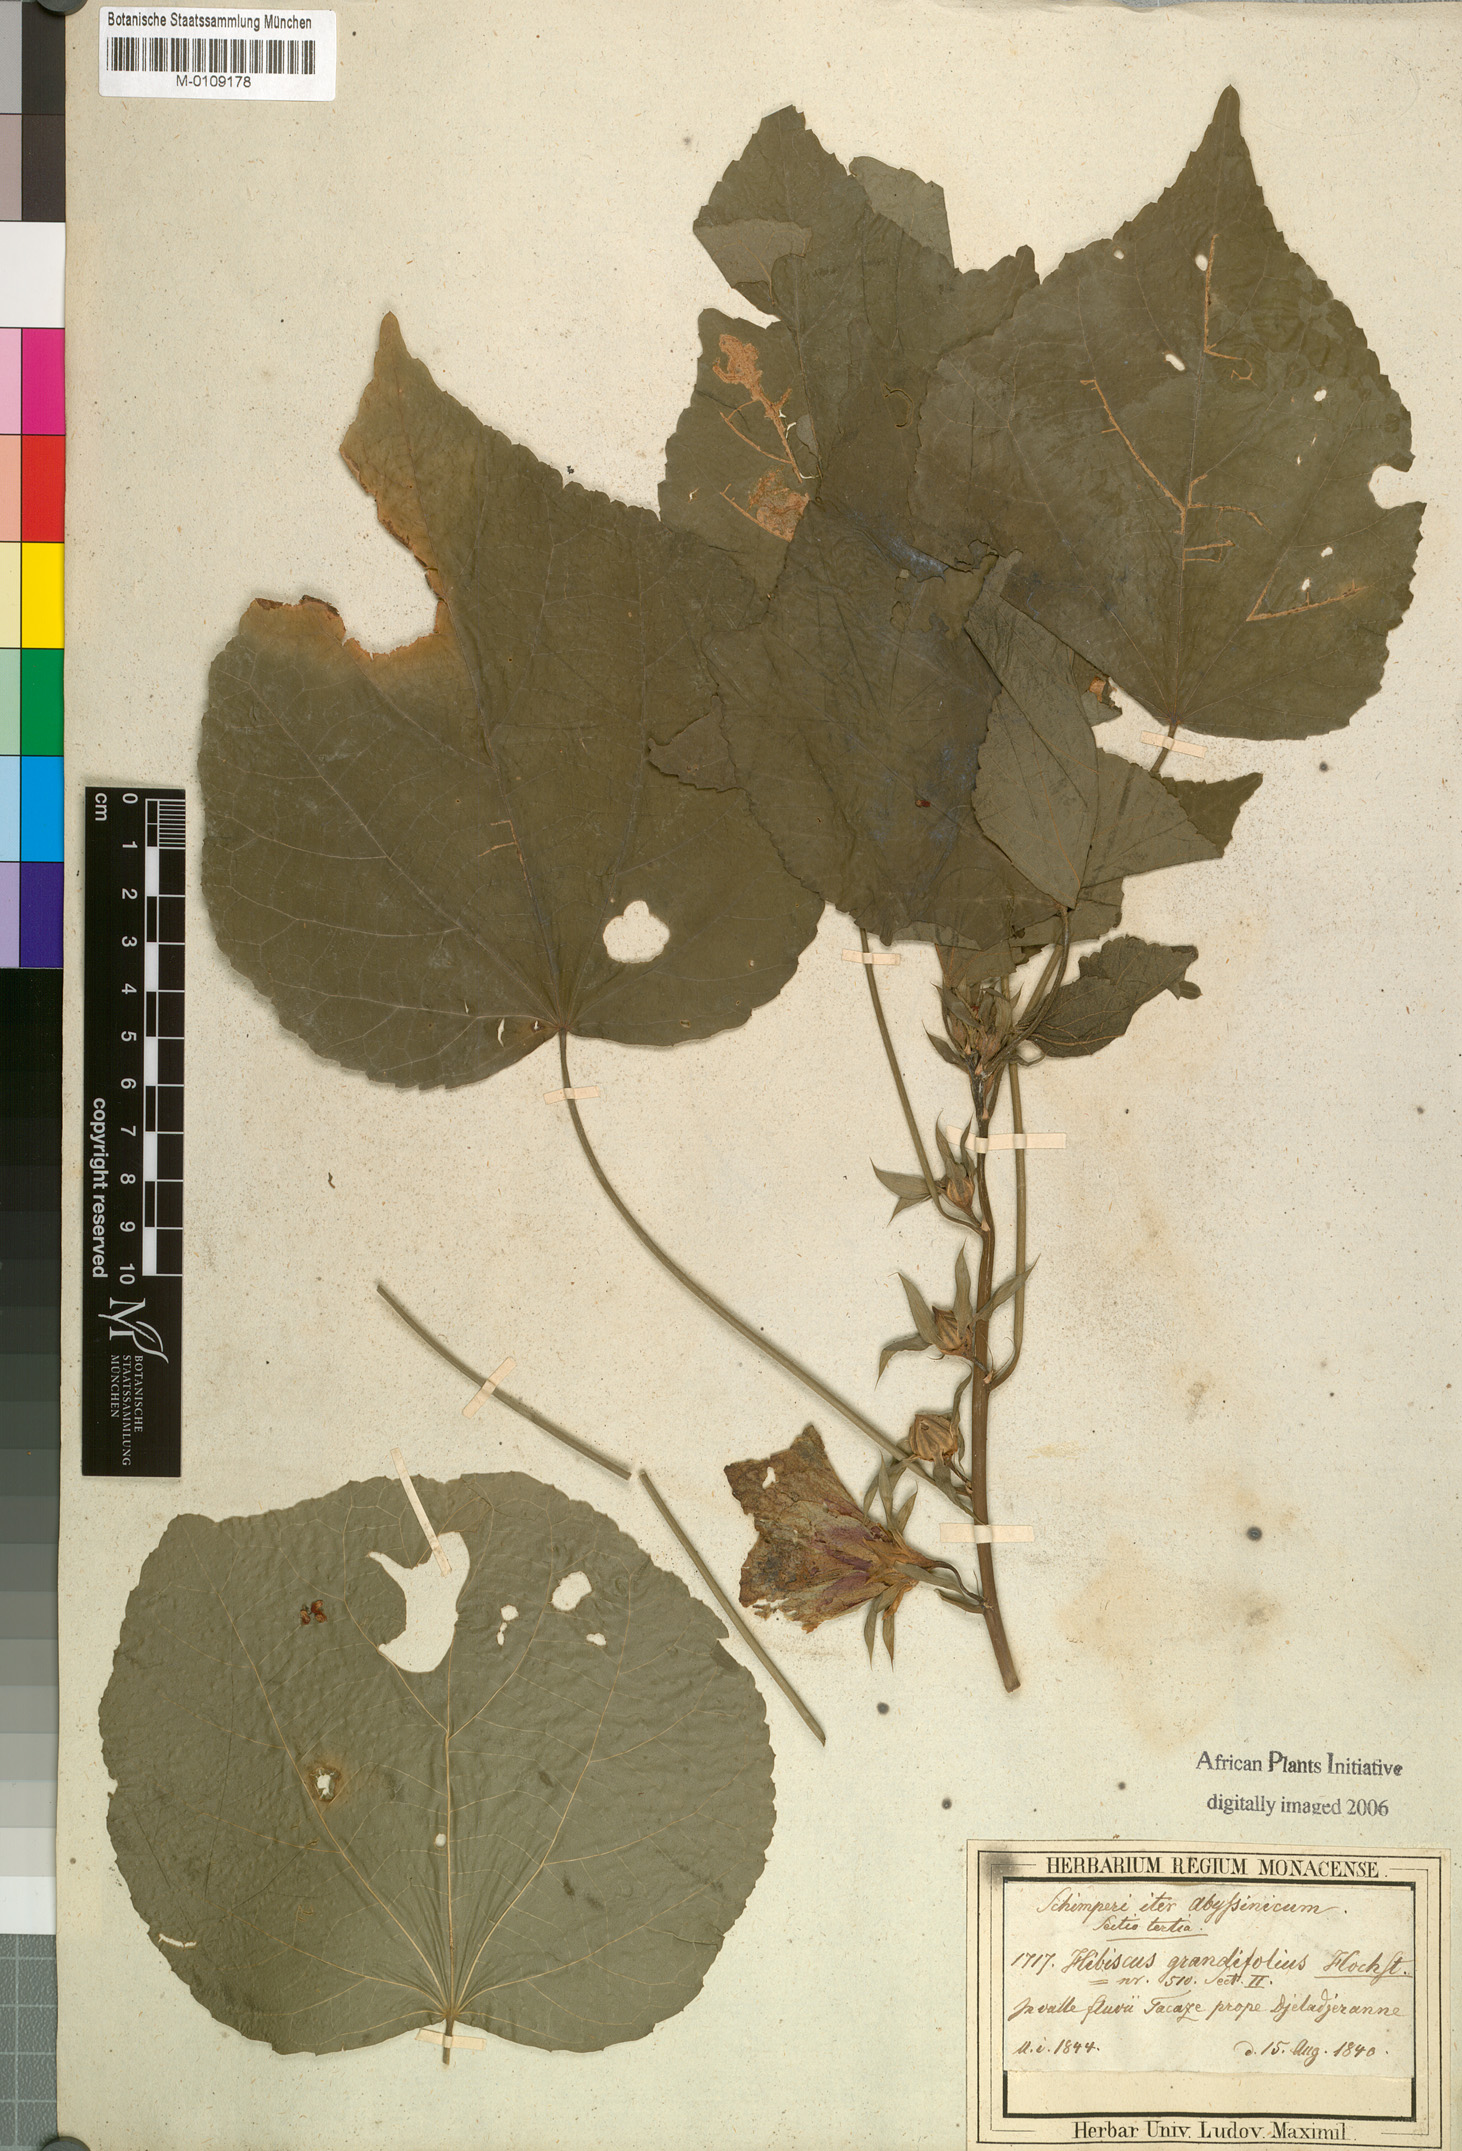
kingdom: Plantae
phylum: Tracheophyta
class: Magnoliopsida
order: Malvales
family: Malvaceae
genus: Hibiscus
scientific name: Hibiscus calyphyllus
